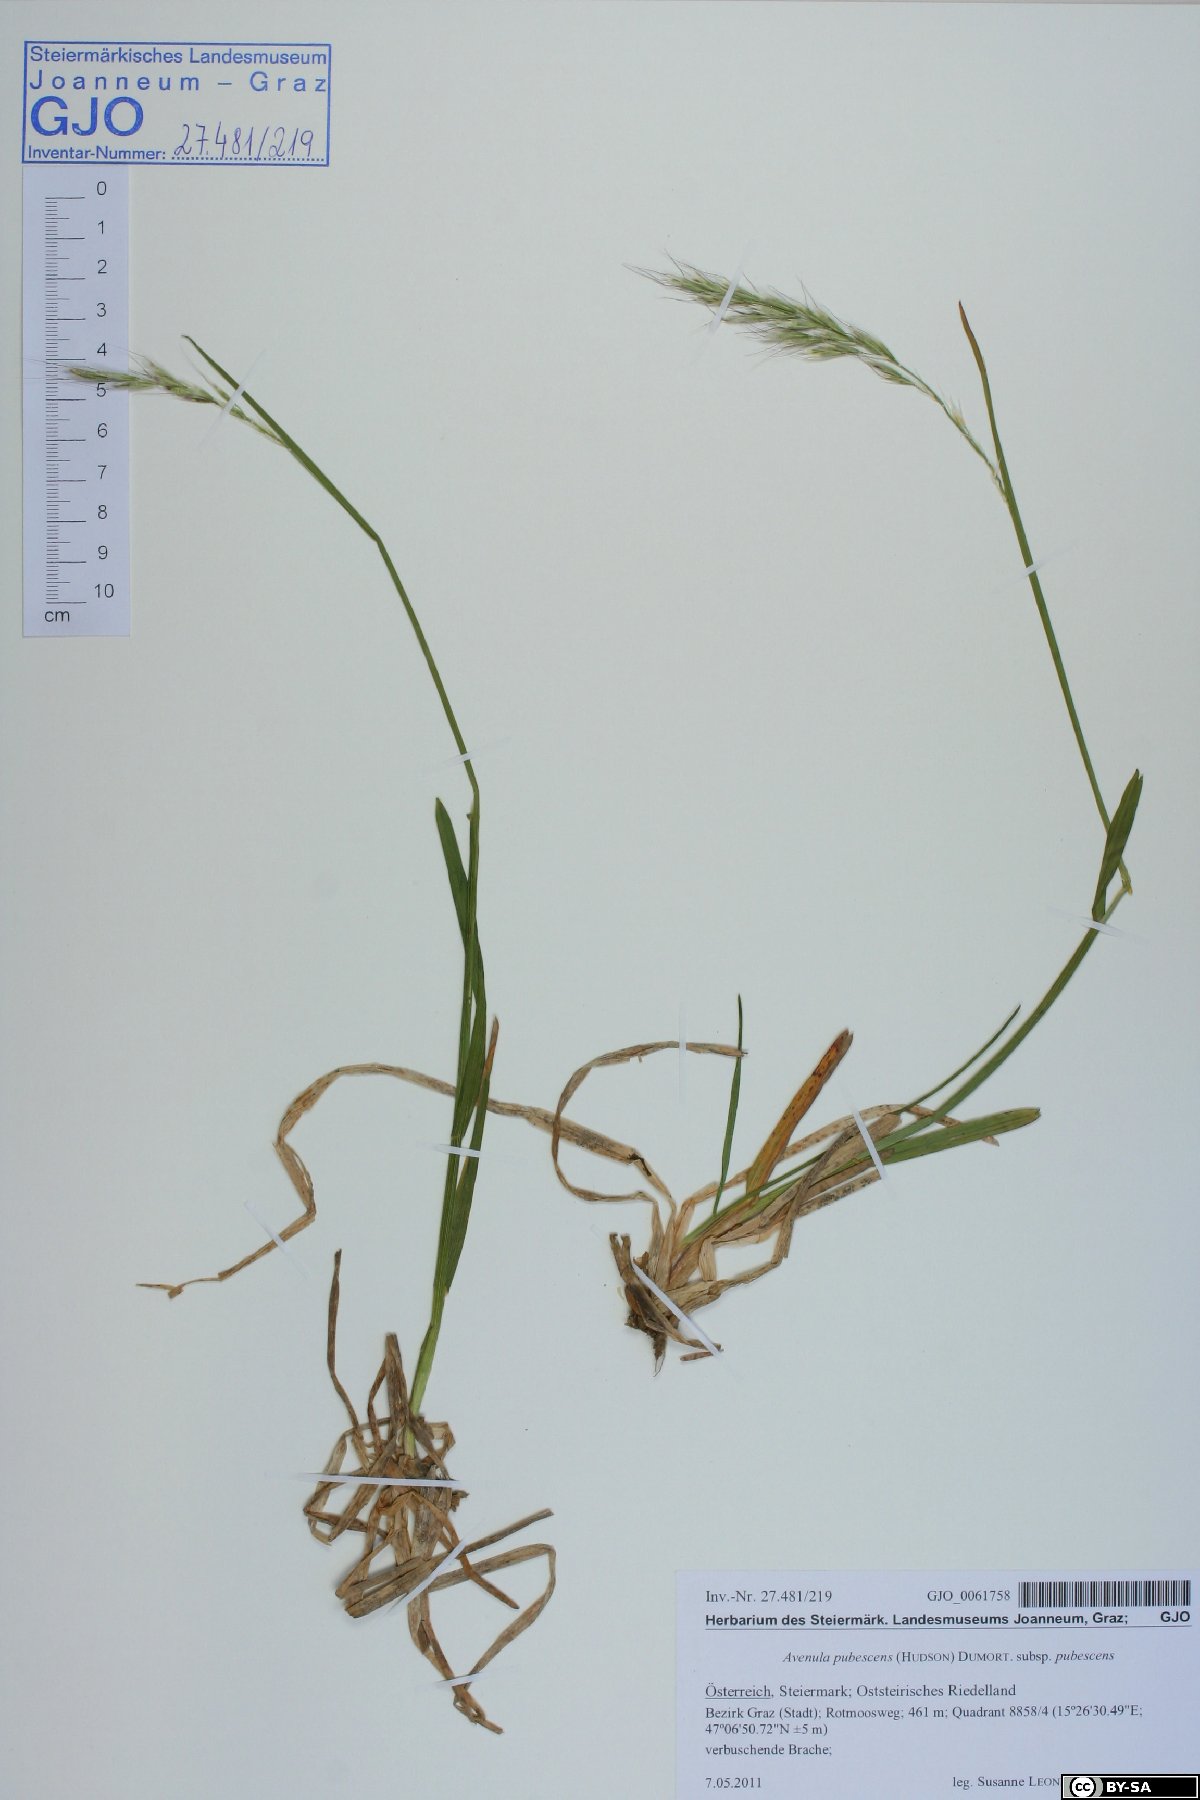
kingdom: Plantae
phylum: Tracheophyta
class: Liliopsida
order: Poales
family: Poaceae
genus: Avenula
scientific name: Avenula pubescens
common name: Downy alpine oatgrass
